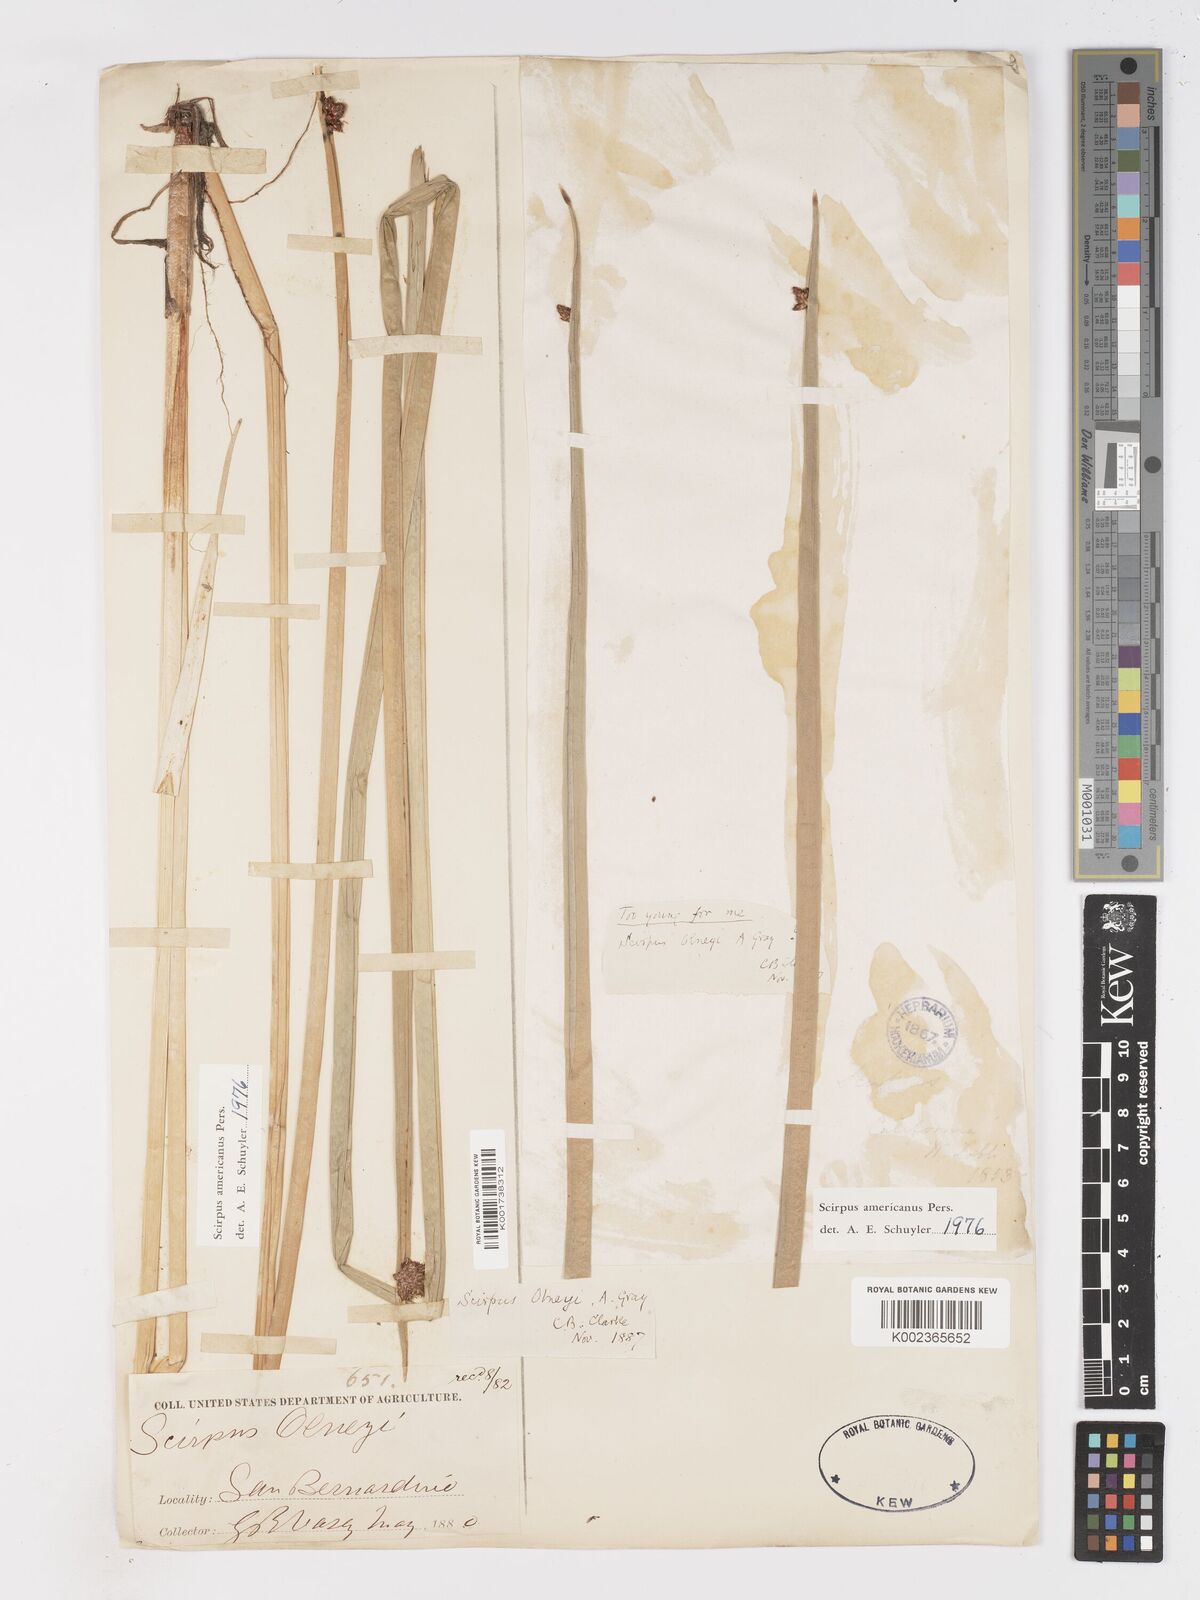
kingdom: Plantae
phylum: Tracheophyta
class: Liliopsida
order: Poales
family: Cyperaceae
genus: Schoenoplectus
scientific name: Schoenoplectus americanus
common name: American three-square bulrush
